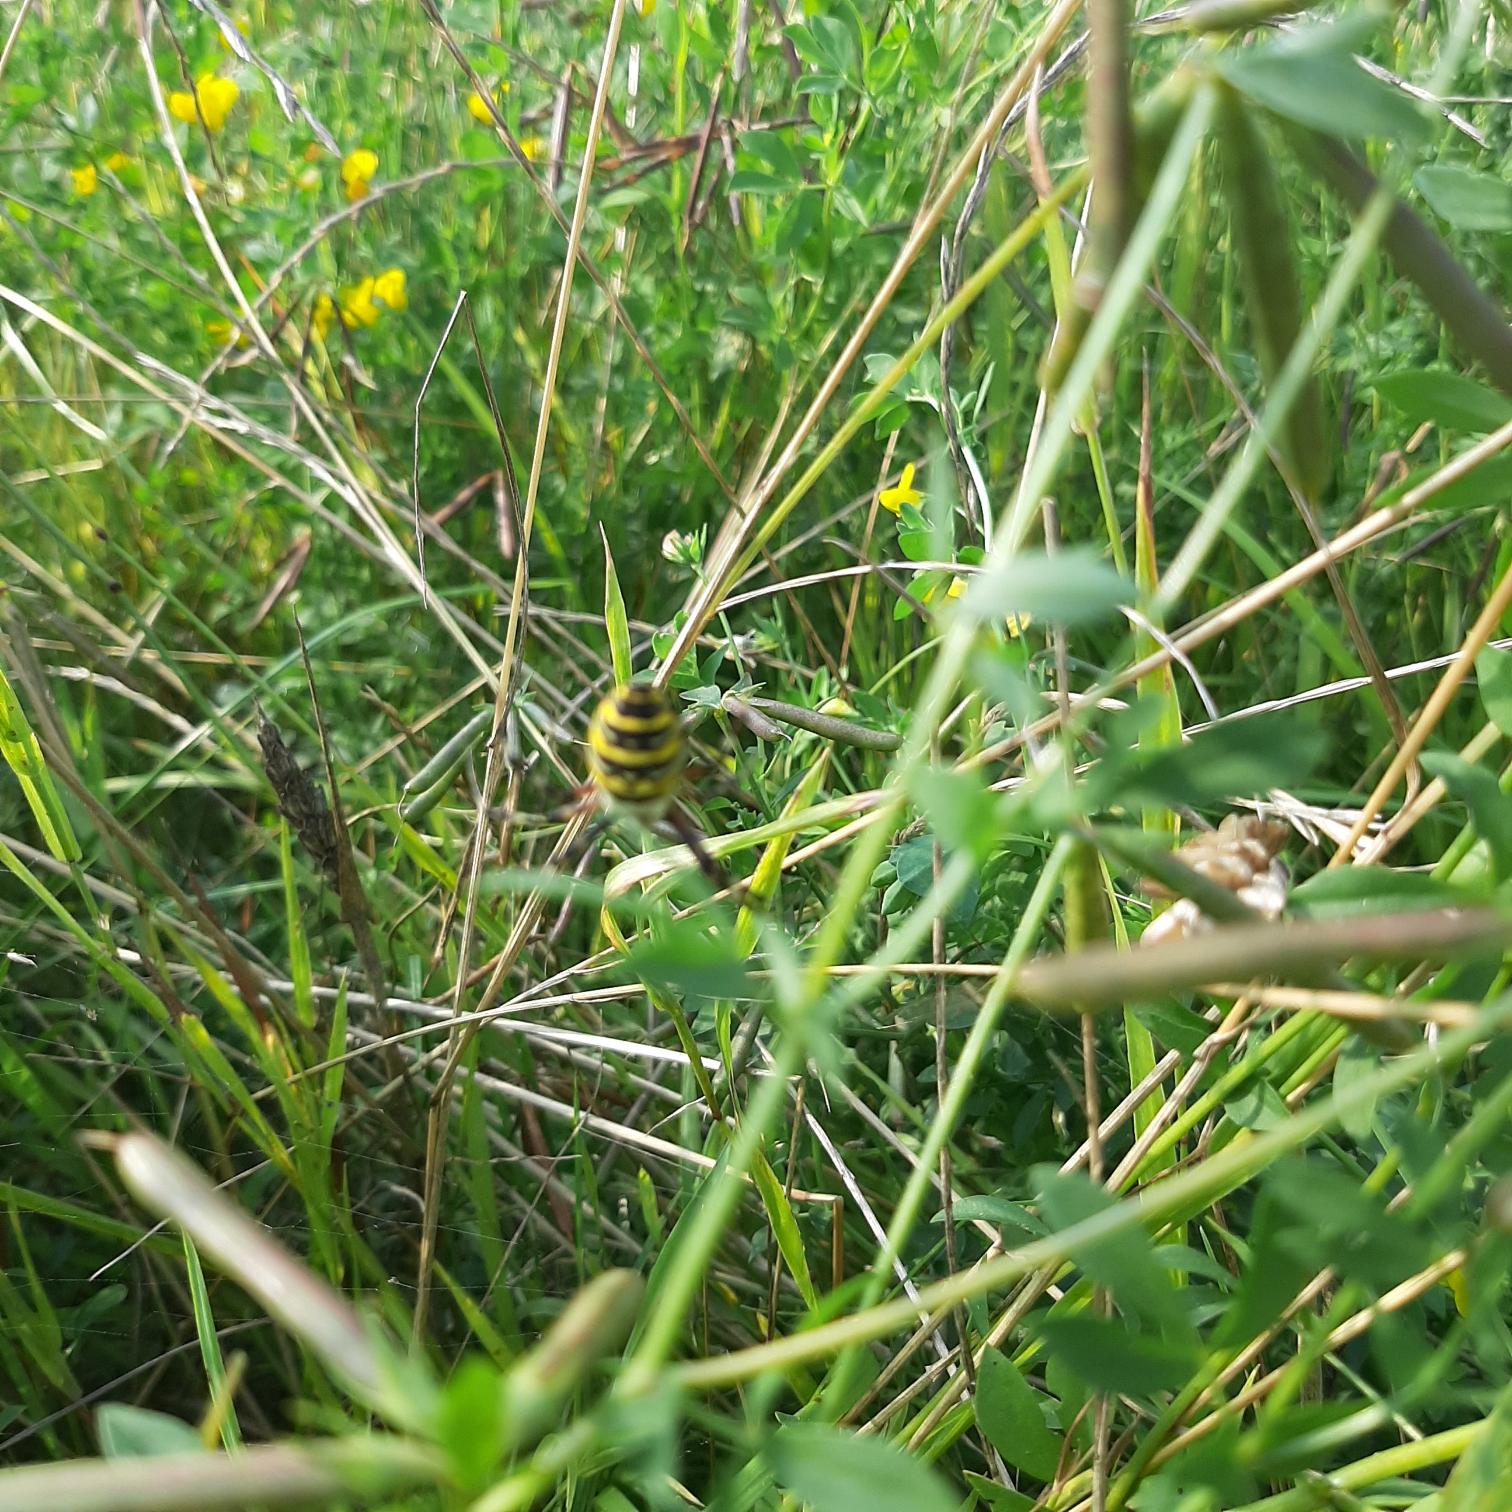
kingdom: Animalia
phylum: Arthropoda
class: Arachnida
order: Araneae
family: Araneidae
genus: Argiope
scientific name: Argiope bruennichi
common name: Hvepseedderkop
